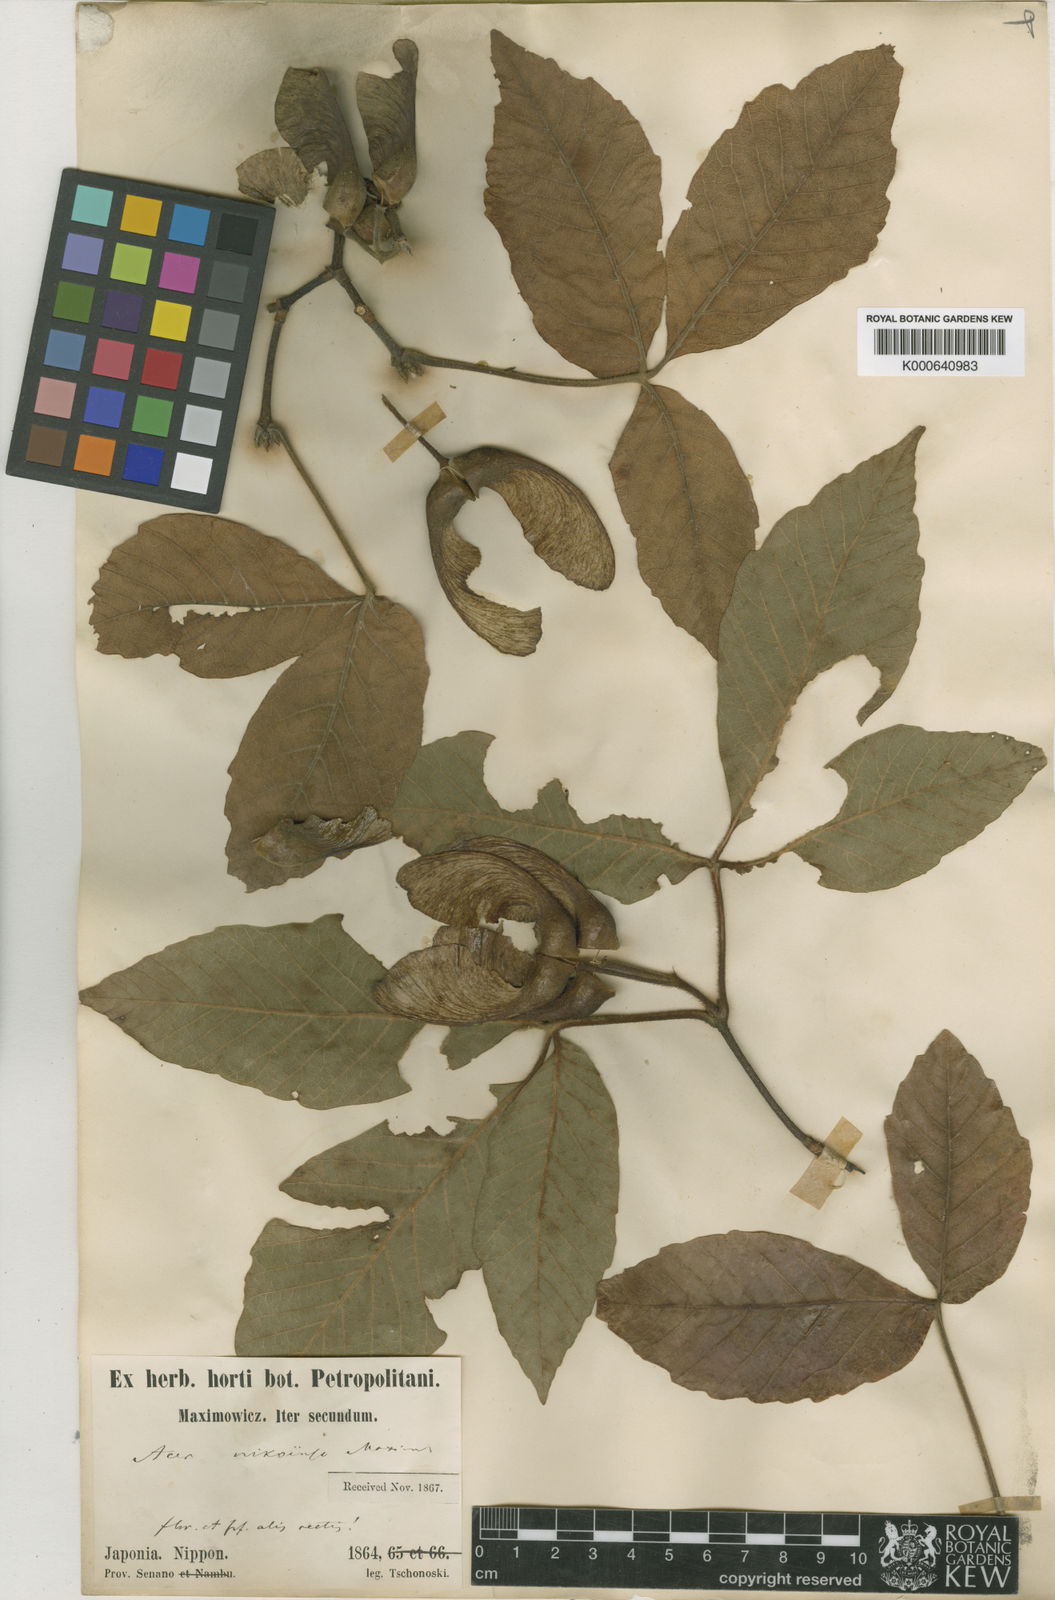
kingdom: Plantae
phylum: Tracheophyta
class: Magnoliopsida
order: Sapindales
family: Sapindaceae
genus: Acer
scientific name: Acer maximowiczianum
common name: Nikko maple
